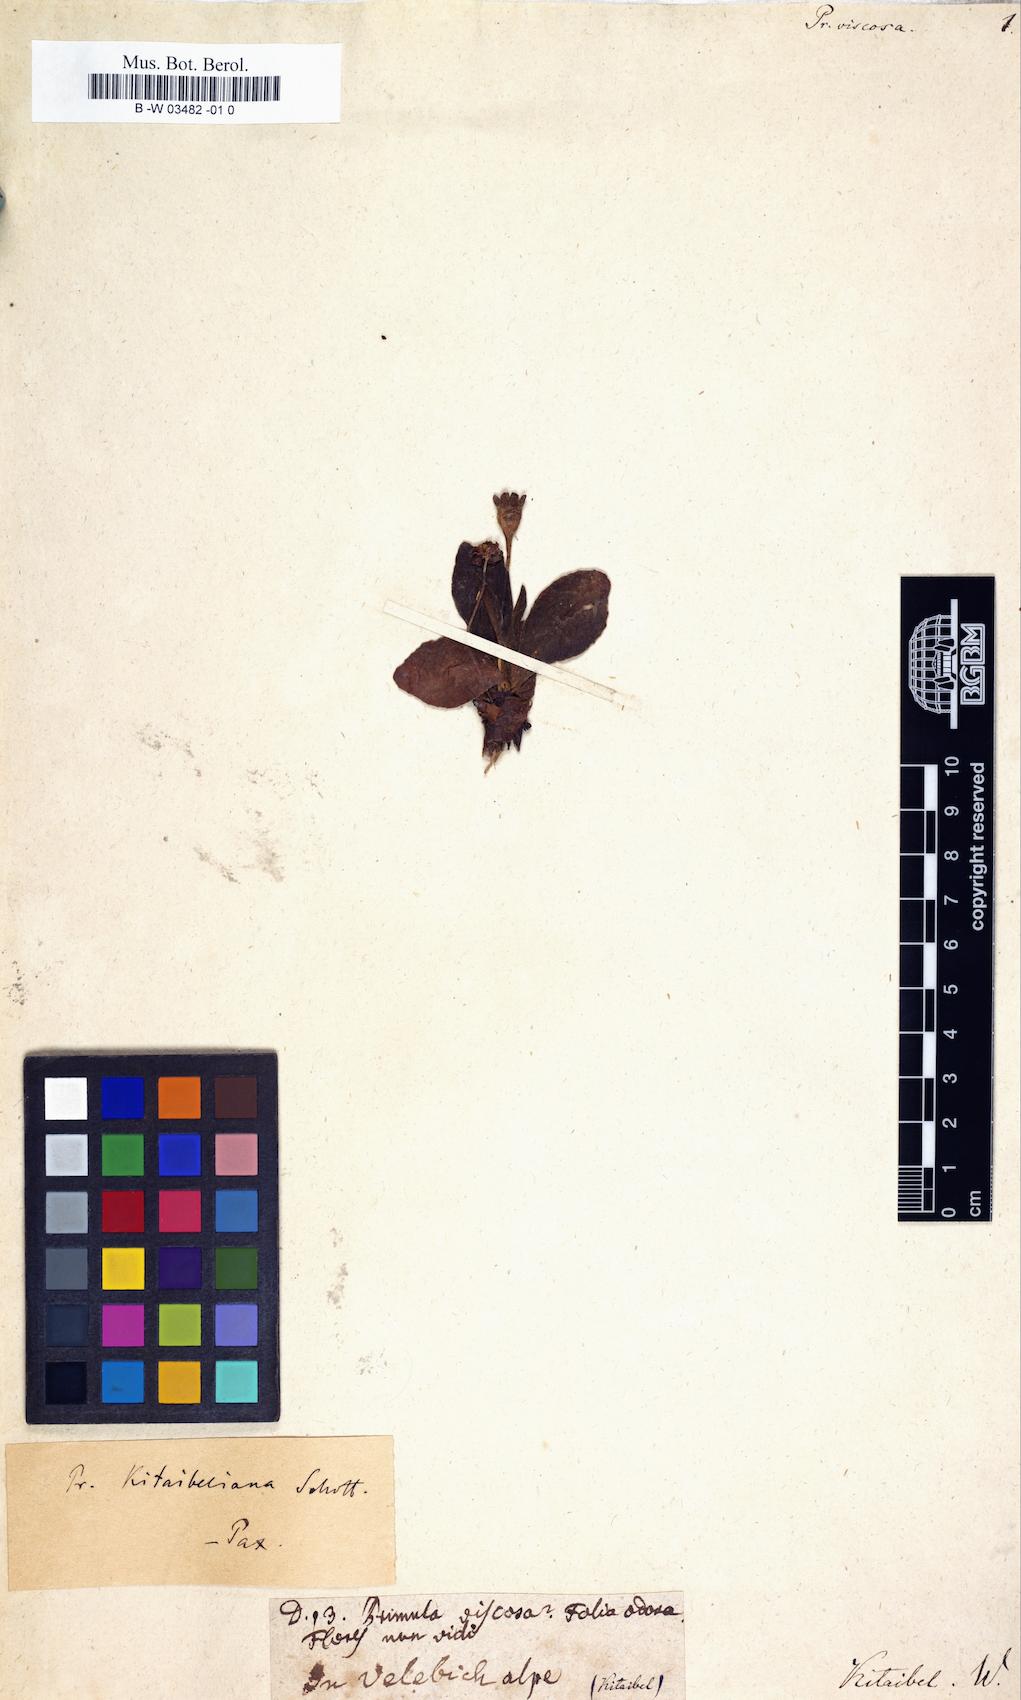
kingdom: Plantae
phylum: Tracheophyta
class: Magnoliopsida
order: Ericales
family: Primulaceae
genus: Primula
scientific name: Primula
